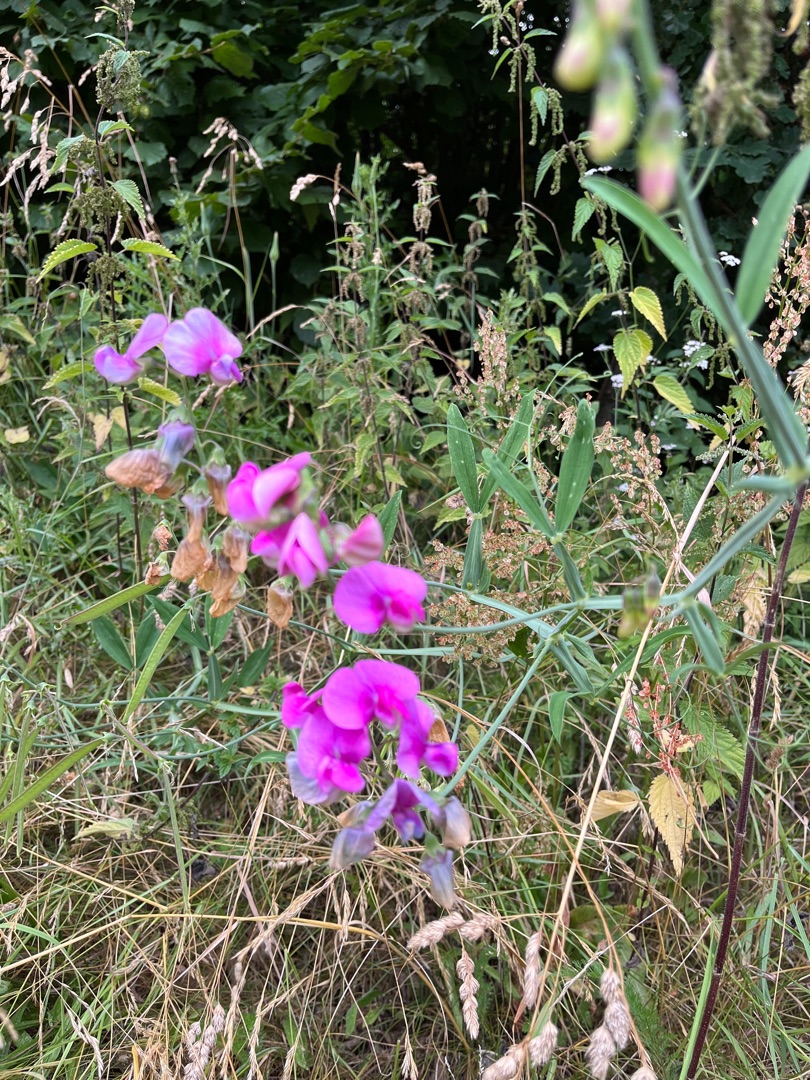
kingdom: Plantae
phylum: Tracheophyta
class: Magnoliopsida
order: Fabales
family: Fabaceae
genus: Lathyrus
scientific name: Lathyrus latifolius
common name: Flerårig ærteblomst
